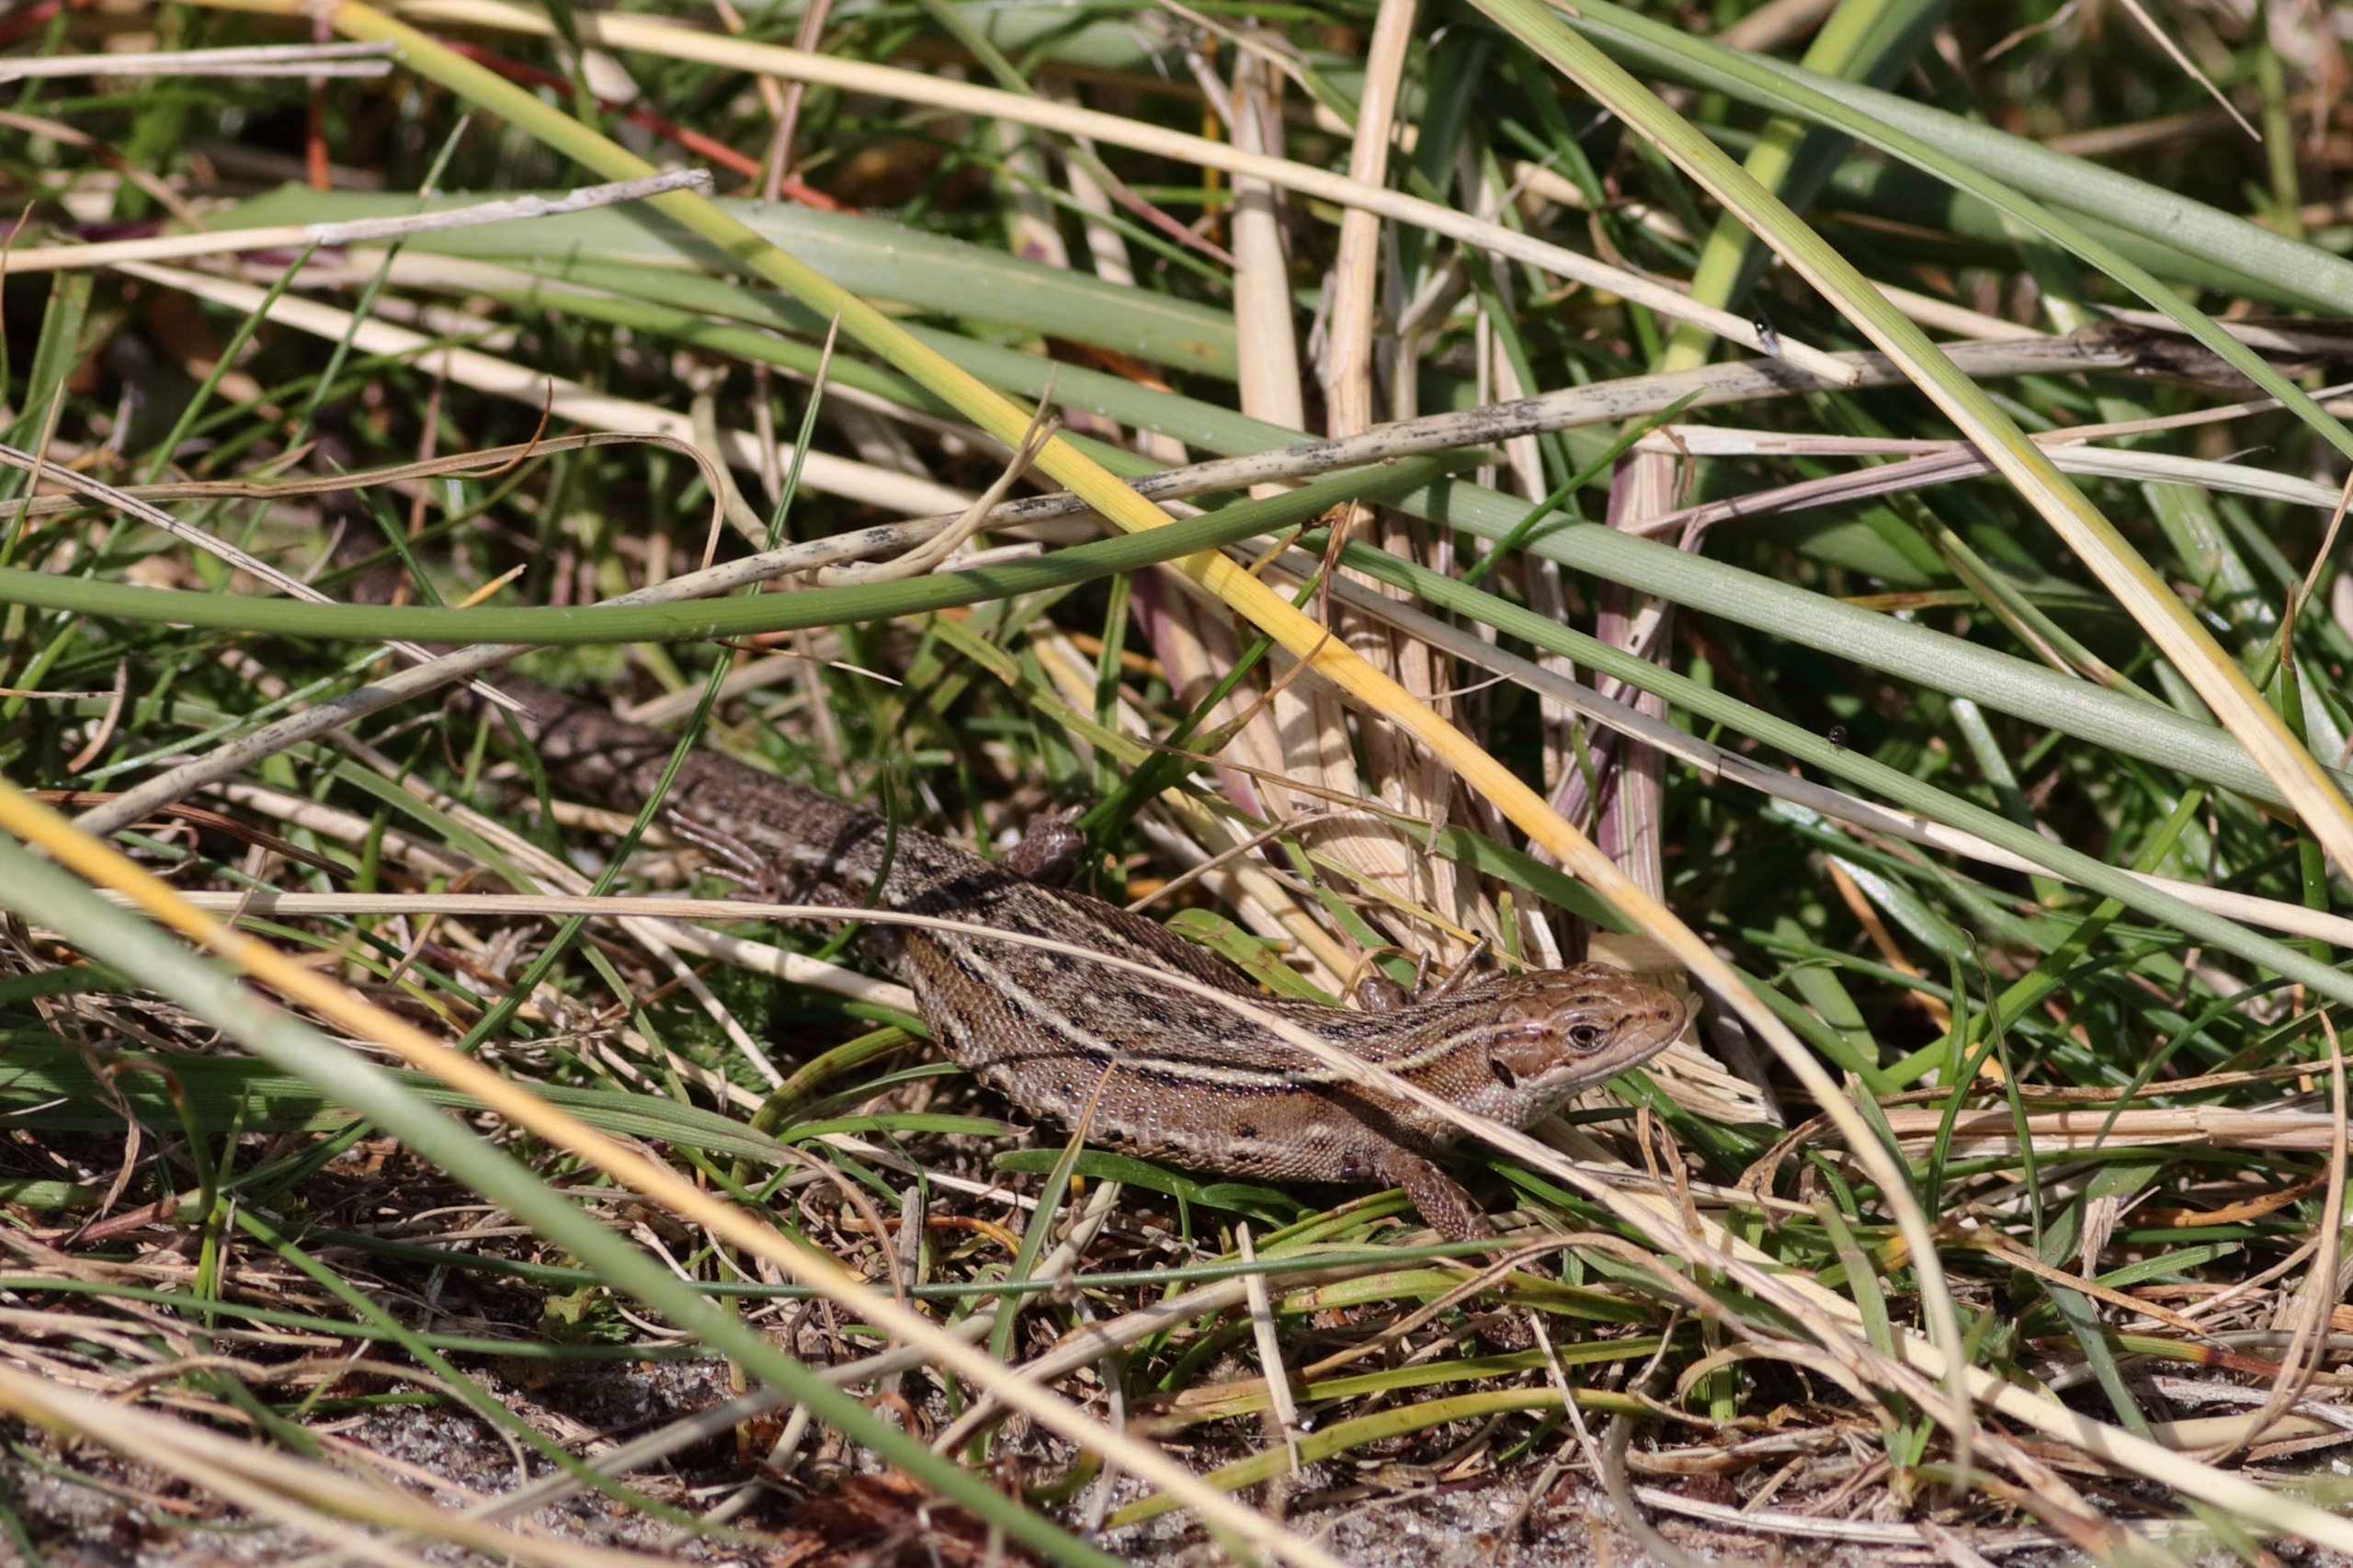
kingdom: Animalia
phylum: Chordata
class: Squamata
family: Lacertidae
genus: Zootoca
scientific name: Zootoca vivipara
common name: Skovfirben
